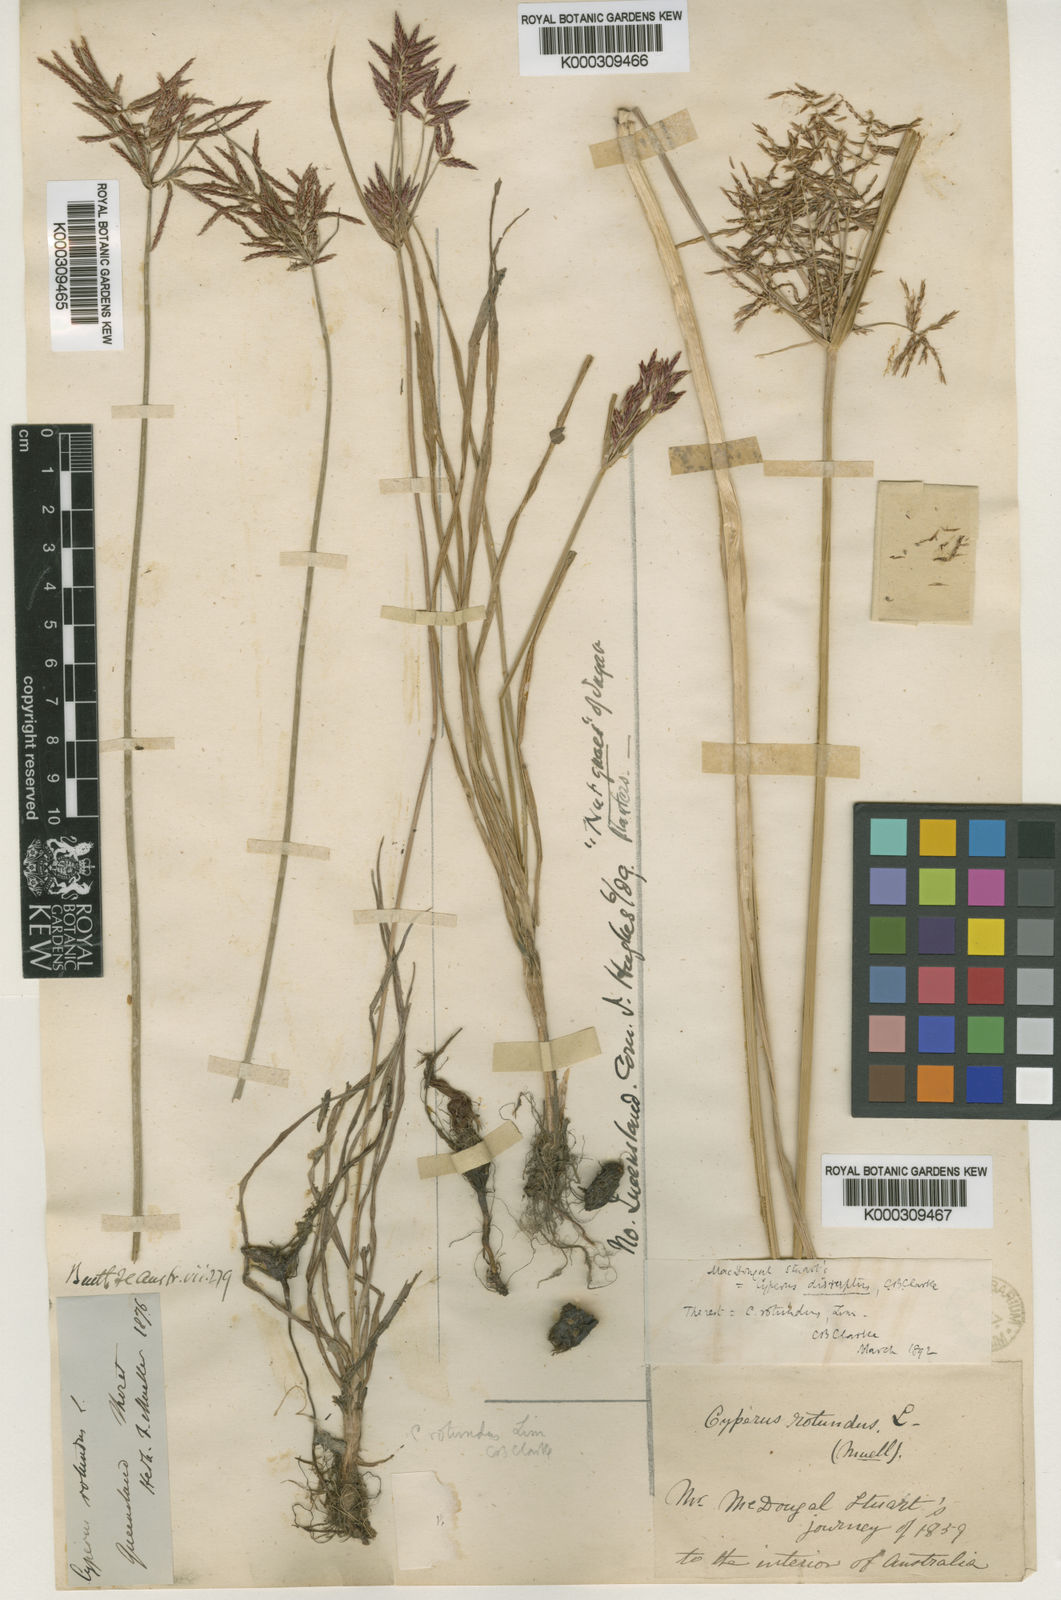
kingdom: Plantae
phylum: Tracheophyta
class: Liliopsida
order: Poales
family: Cyperaceae
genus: Cyperus
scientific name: Cyperus rotundus
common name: Nutgrass
